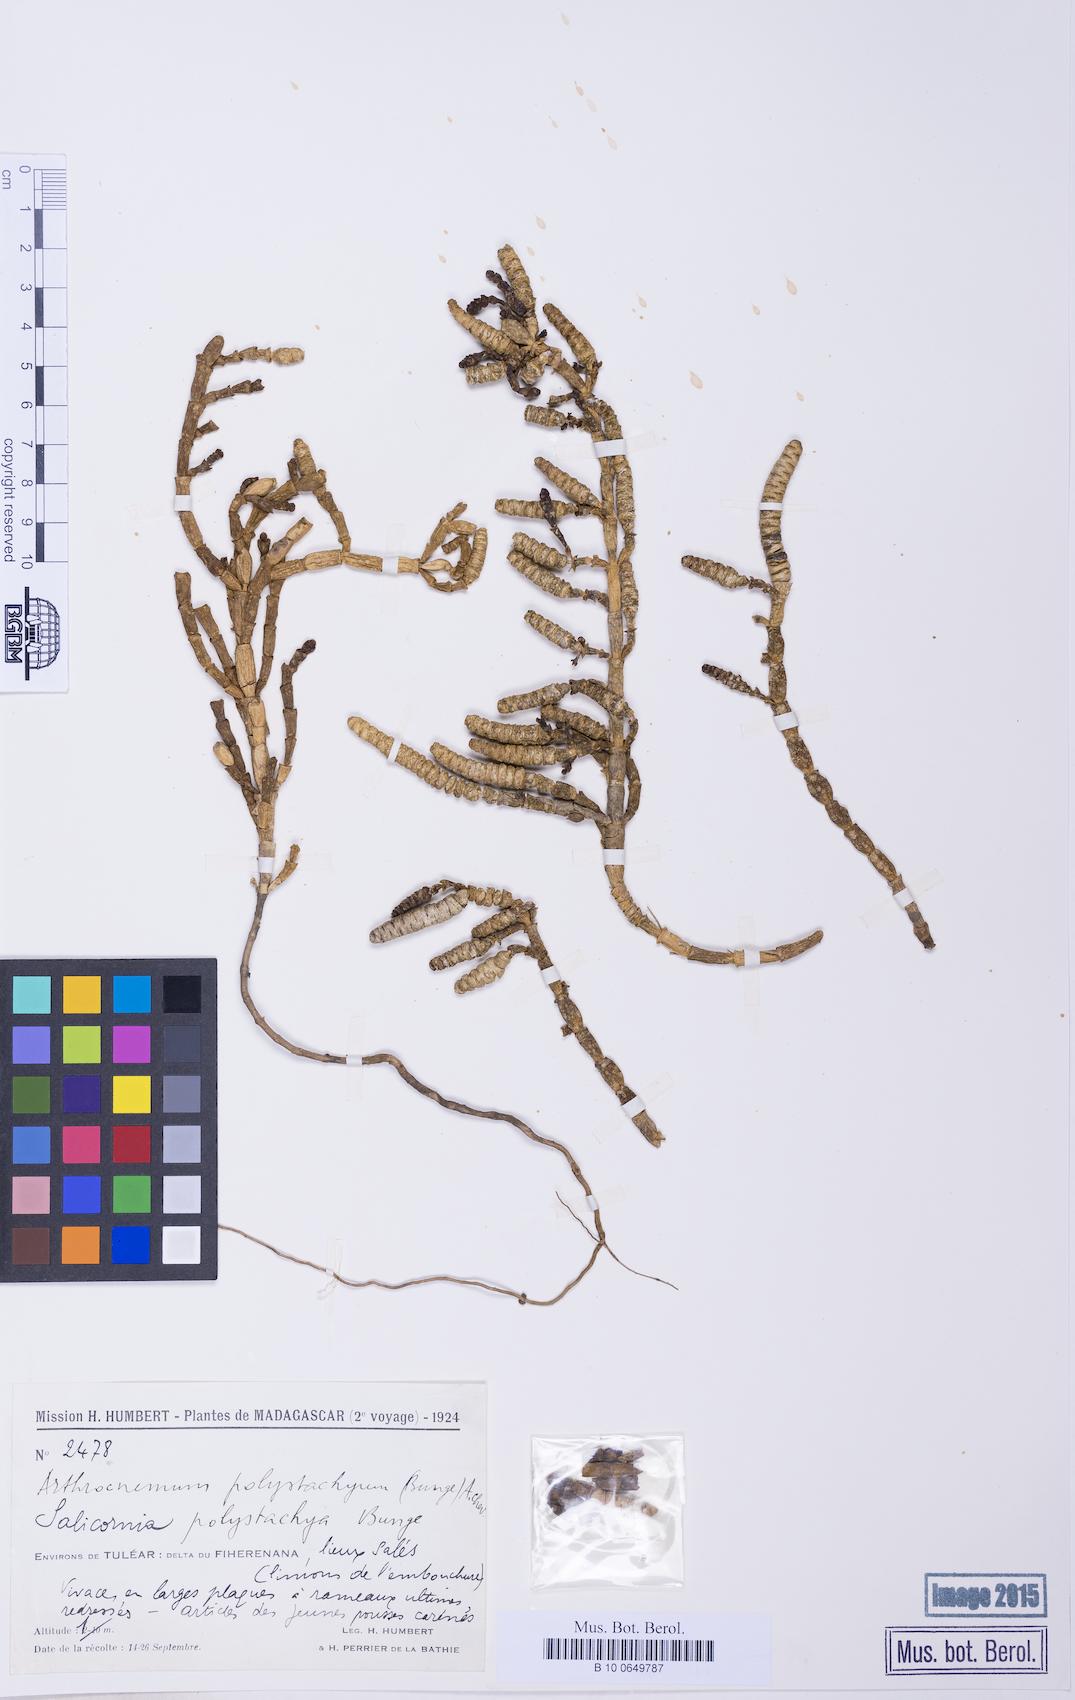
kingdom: Plantae
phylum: Tracheophyta
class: Magnoliopsida
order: Caryophyllales
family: Amaranthaceae
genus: Salicornia
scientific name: Salicornia pachystachya
